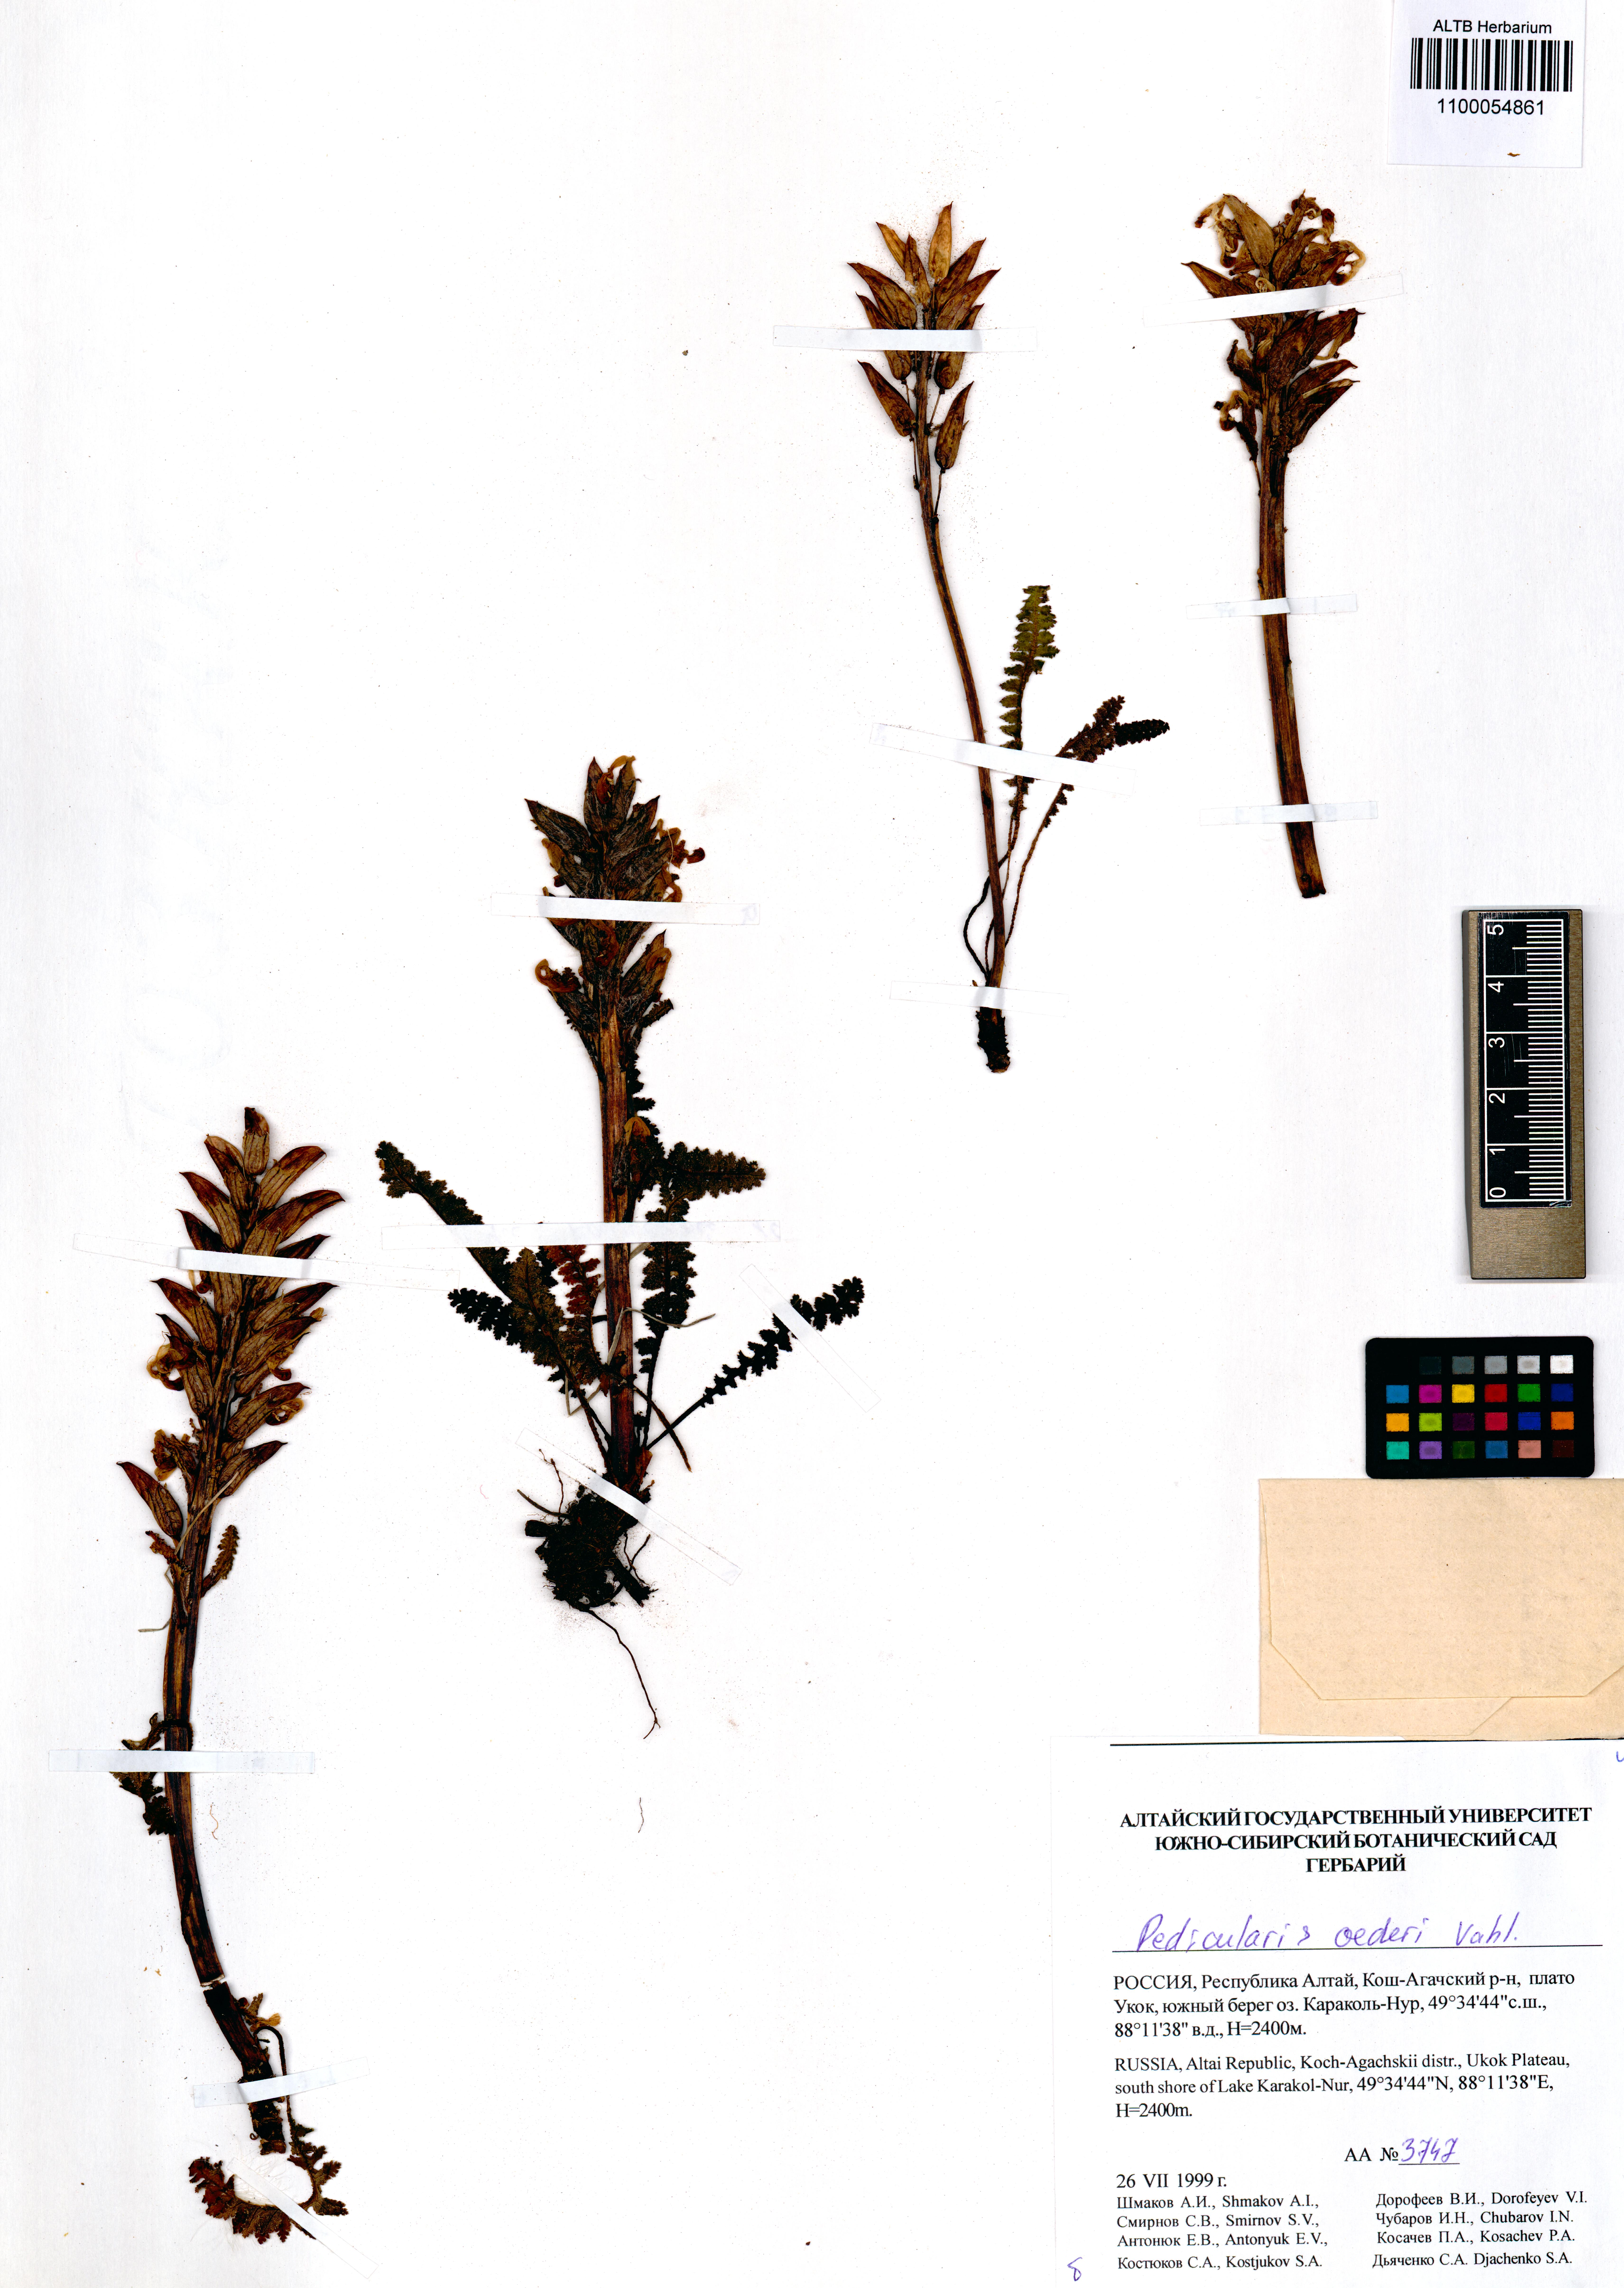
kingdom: Plantae
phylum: Tracheophyta
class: Magnoliopsida
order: Lamiales
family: Orobanchaceae
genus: Pedicularis
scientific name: Pedicularis oederi
